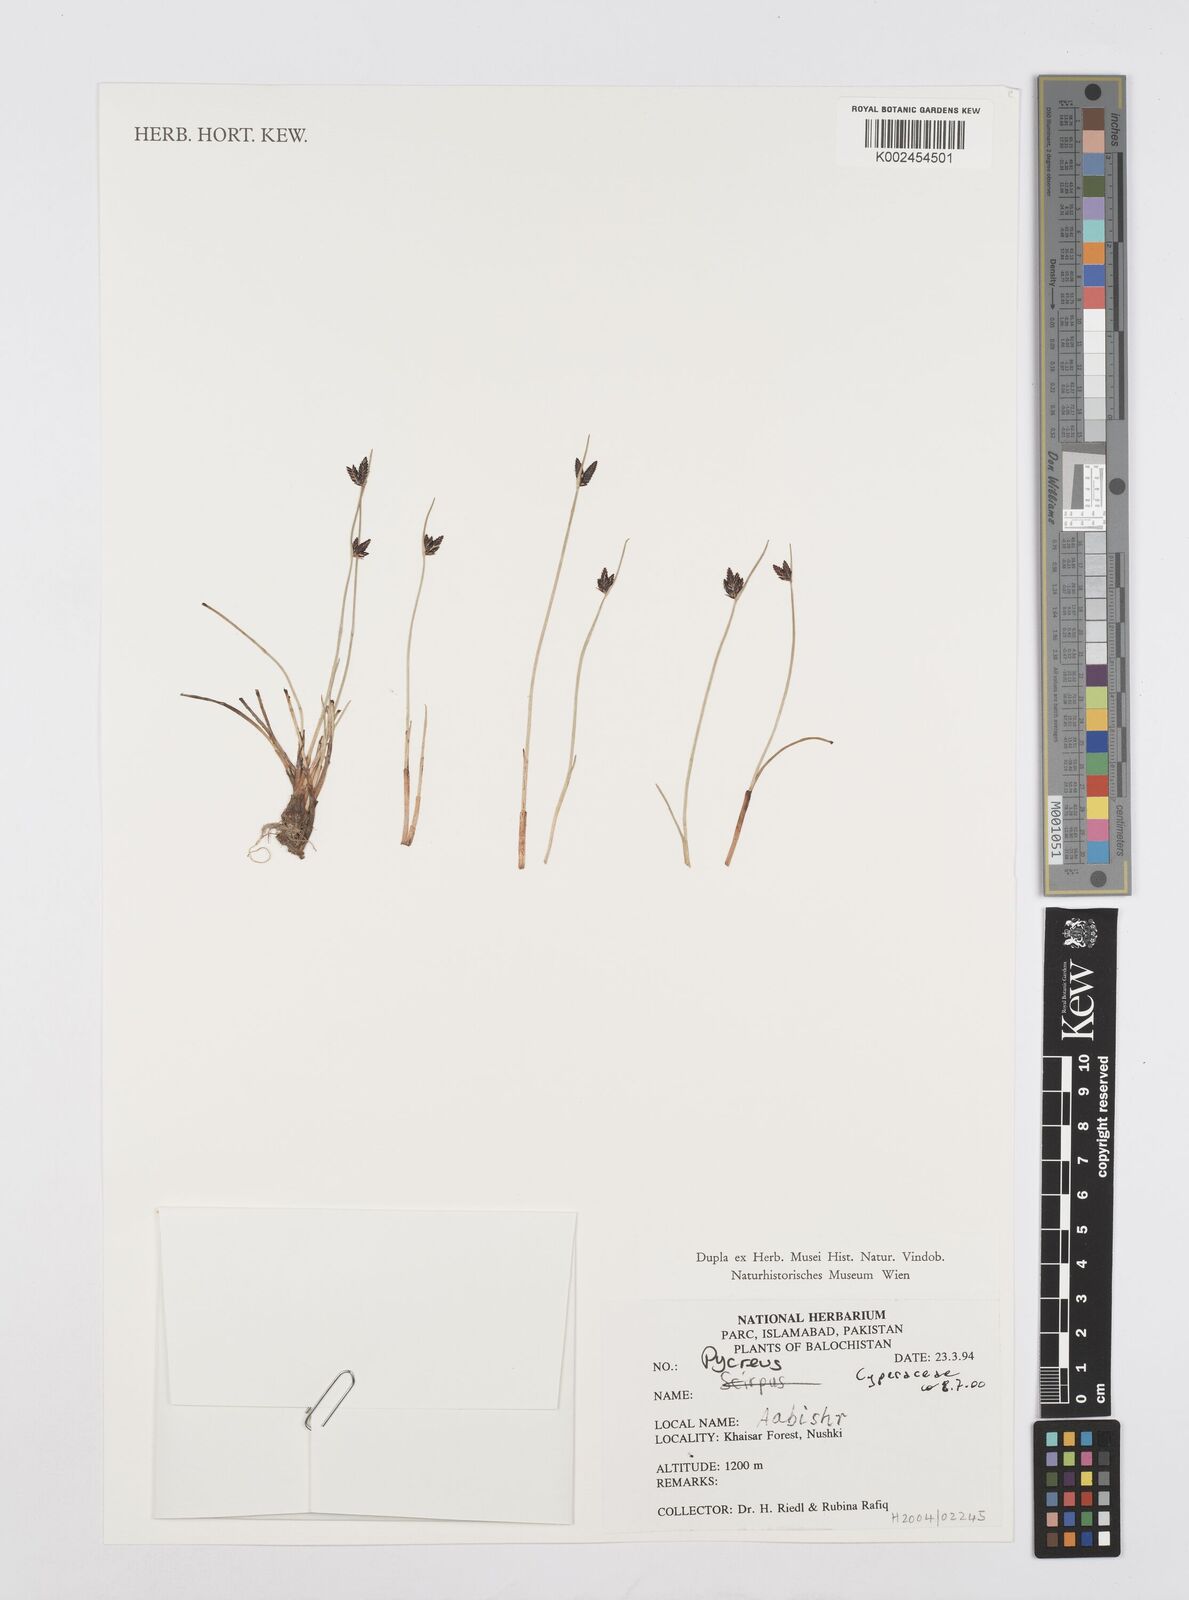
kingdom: Plantae
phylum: Tracheophyta
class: Liliopsida
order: Poales
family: Cyperaceae
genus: Cyperus
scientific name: Cyperus
